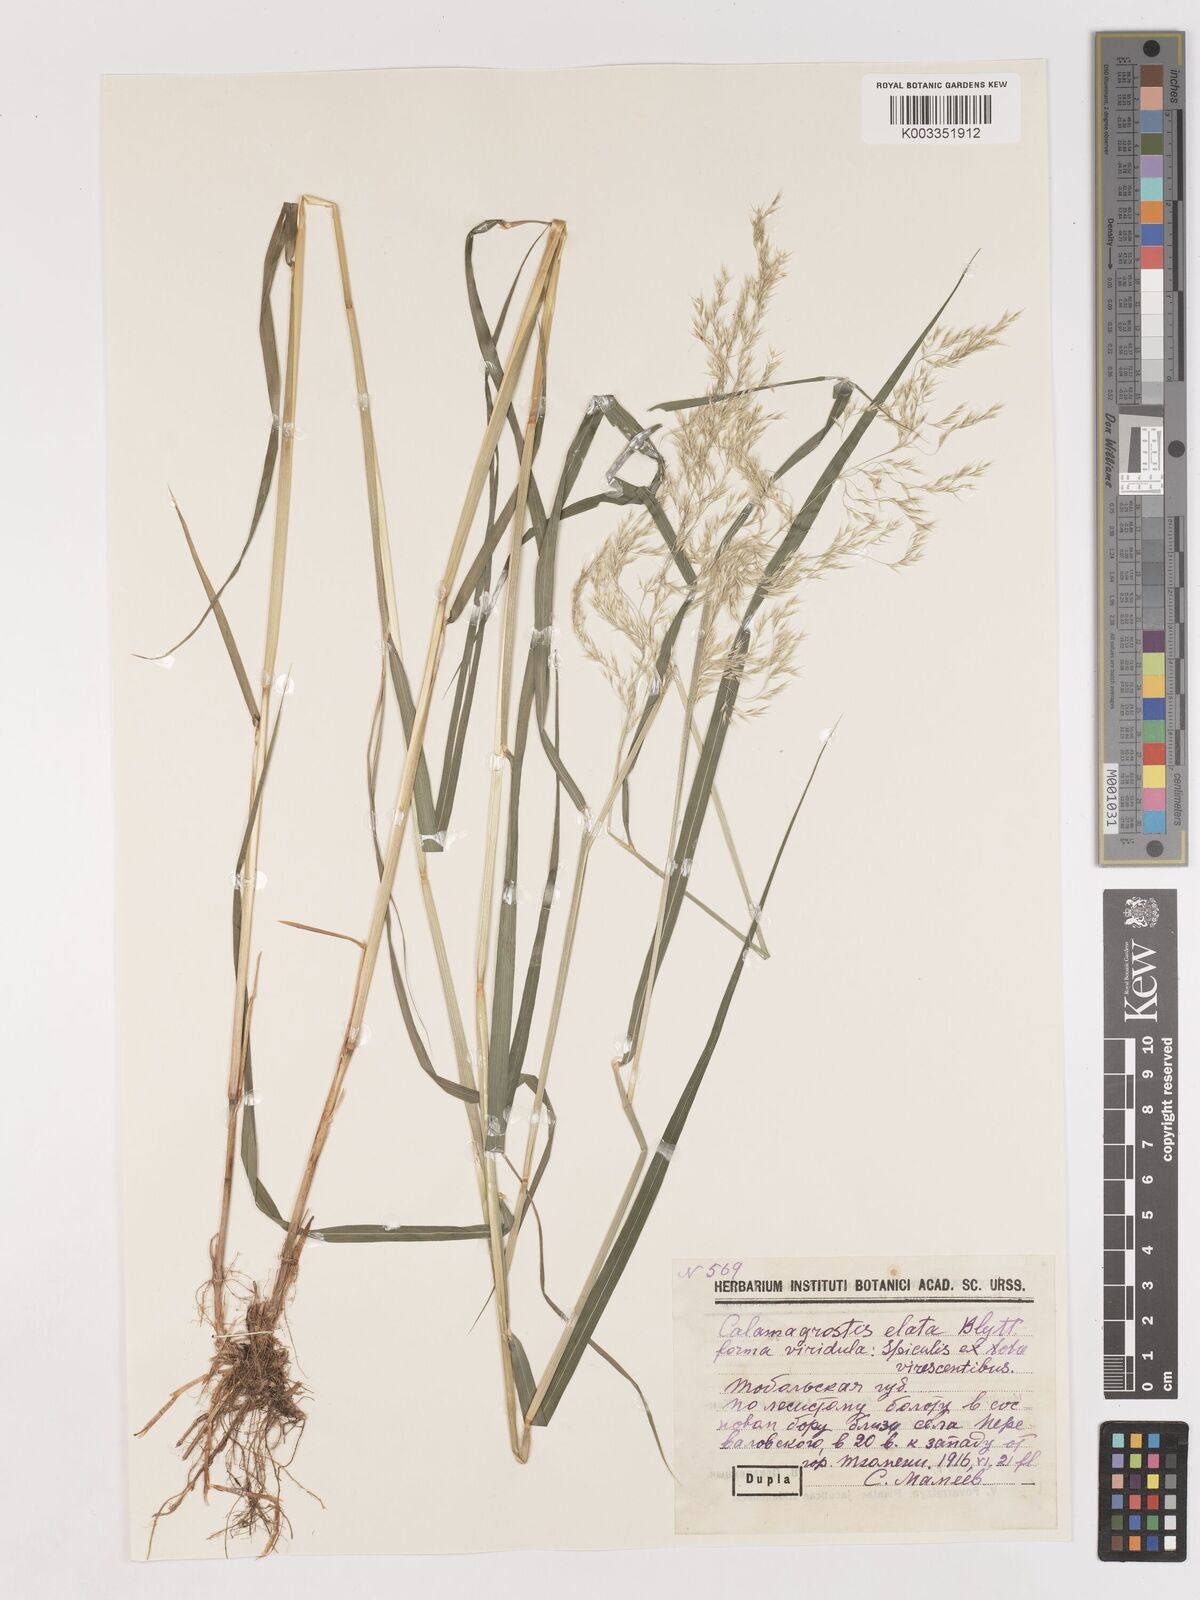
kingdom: Plantae
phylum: Tracheophyta
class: Liliopsida
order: Poales
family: Poaceae
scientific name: Poaceae
